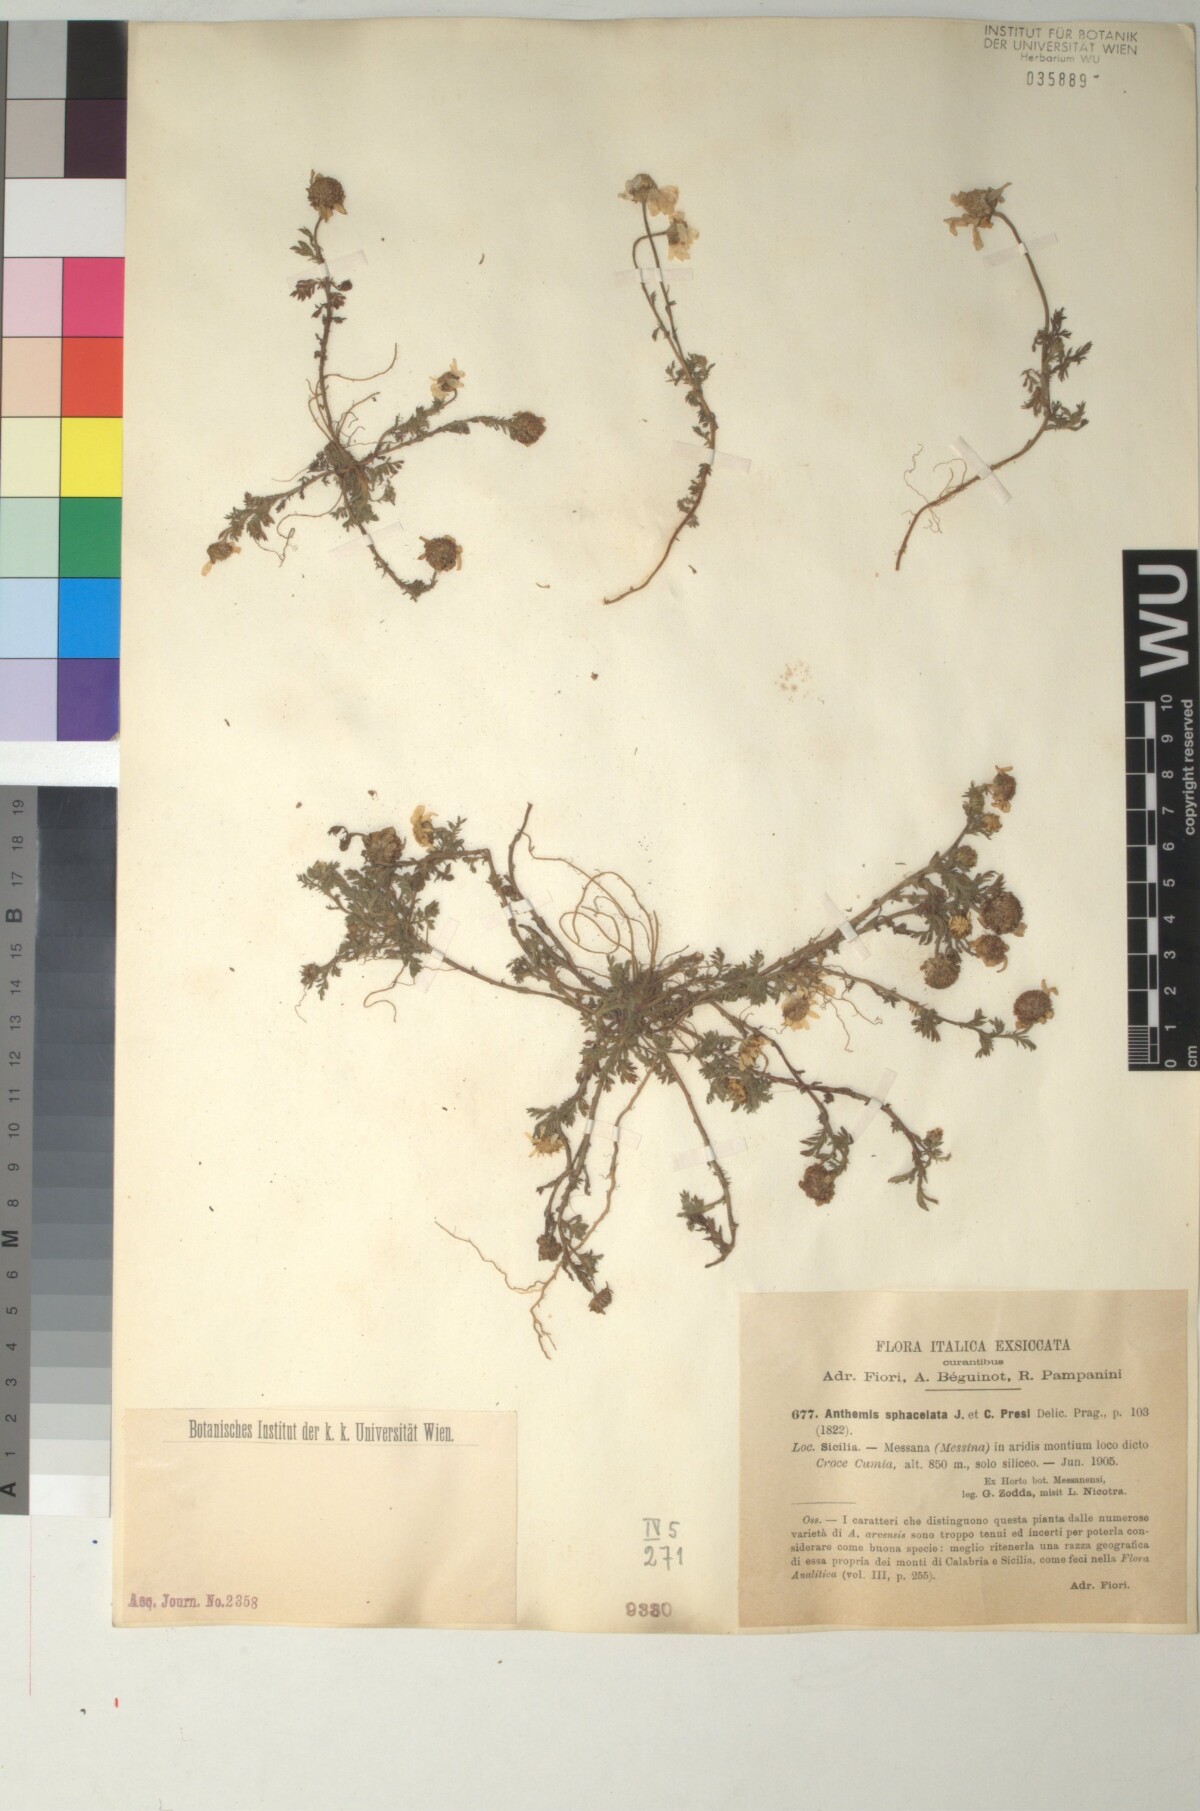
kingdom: Plantae
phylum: Tracheophyta
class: Magnoliopsida
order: Asterales
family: Asteraceae
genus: Anthemis
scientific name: Anthemis arvensis
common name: Corn chamomile
